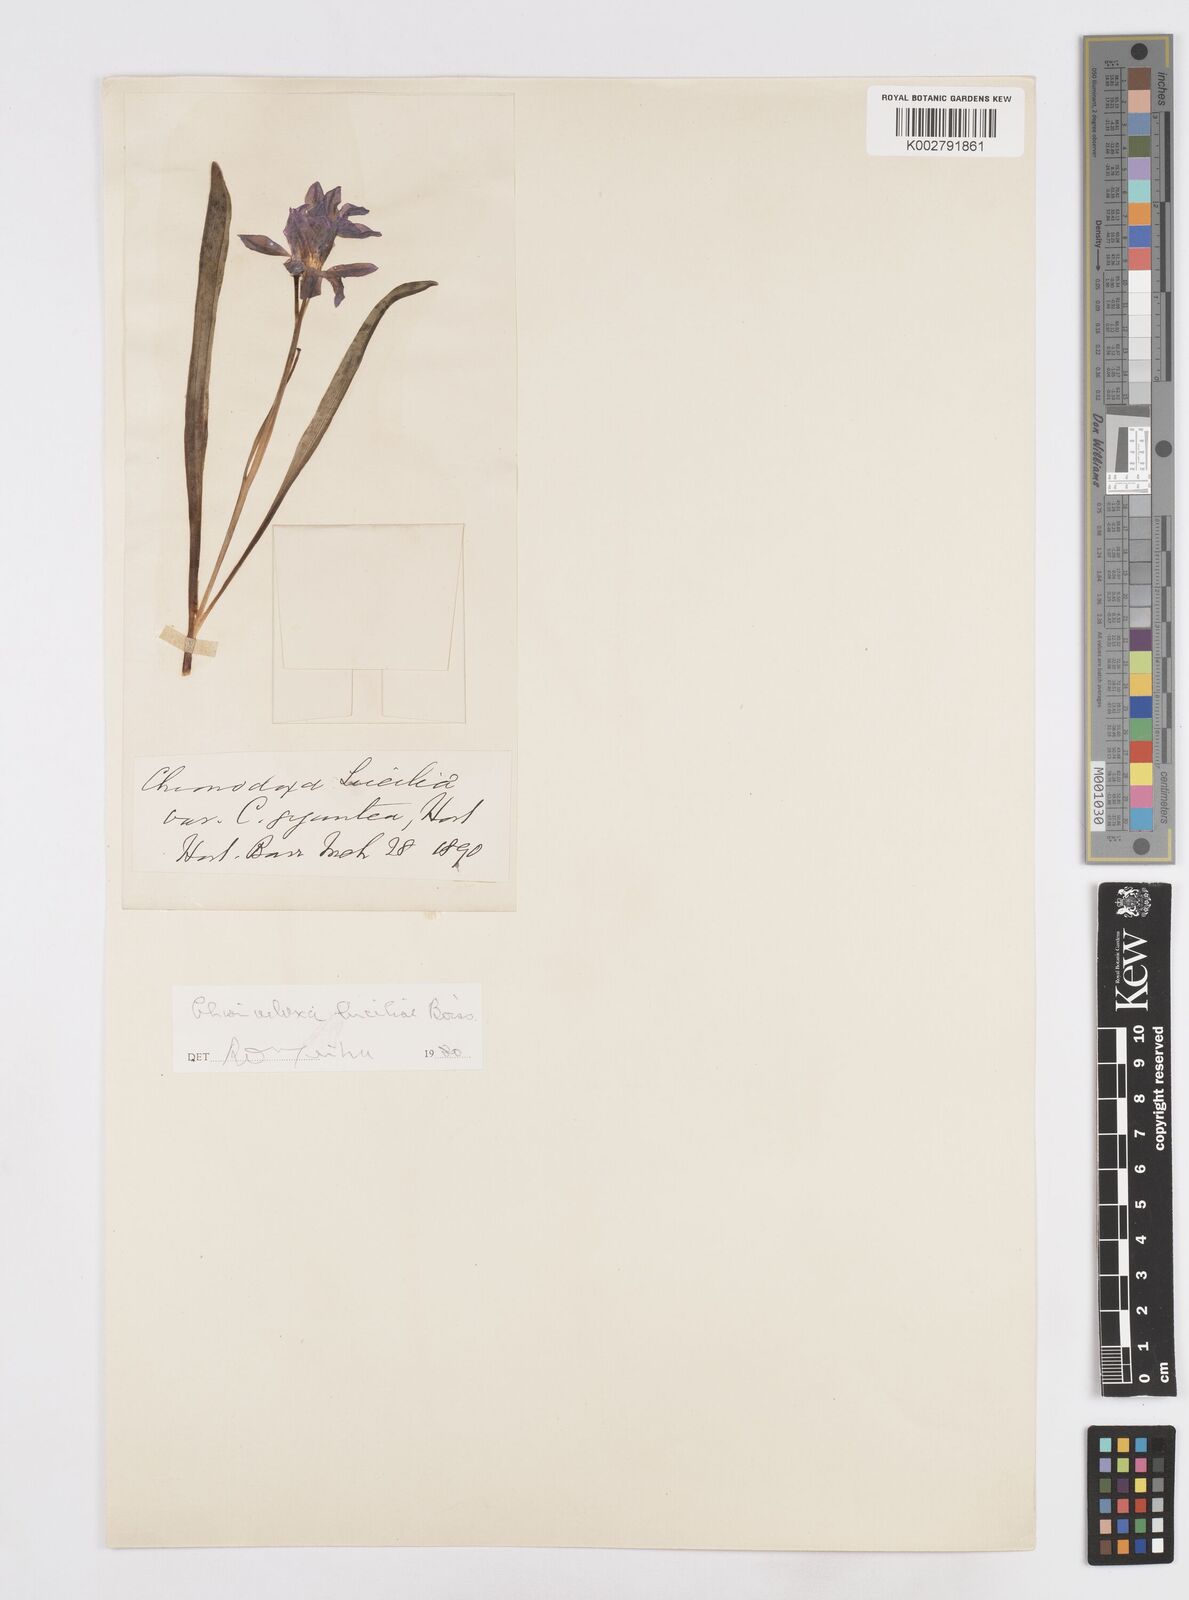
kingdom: Plantae
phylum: Tracheophyta
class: Liliopsida
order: Asparagales
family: Asparagaceae
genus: Scilla
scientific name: Scilla luciliae
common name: Boissier's glory-of-the-snow
